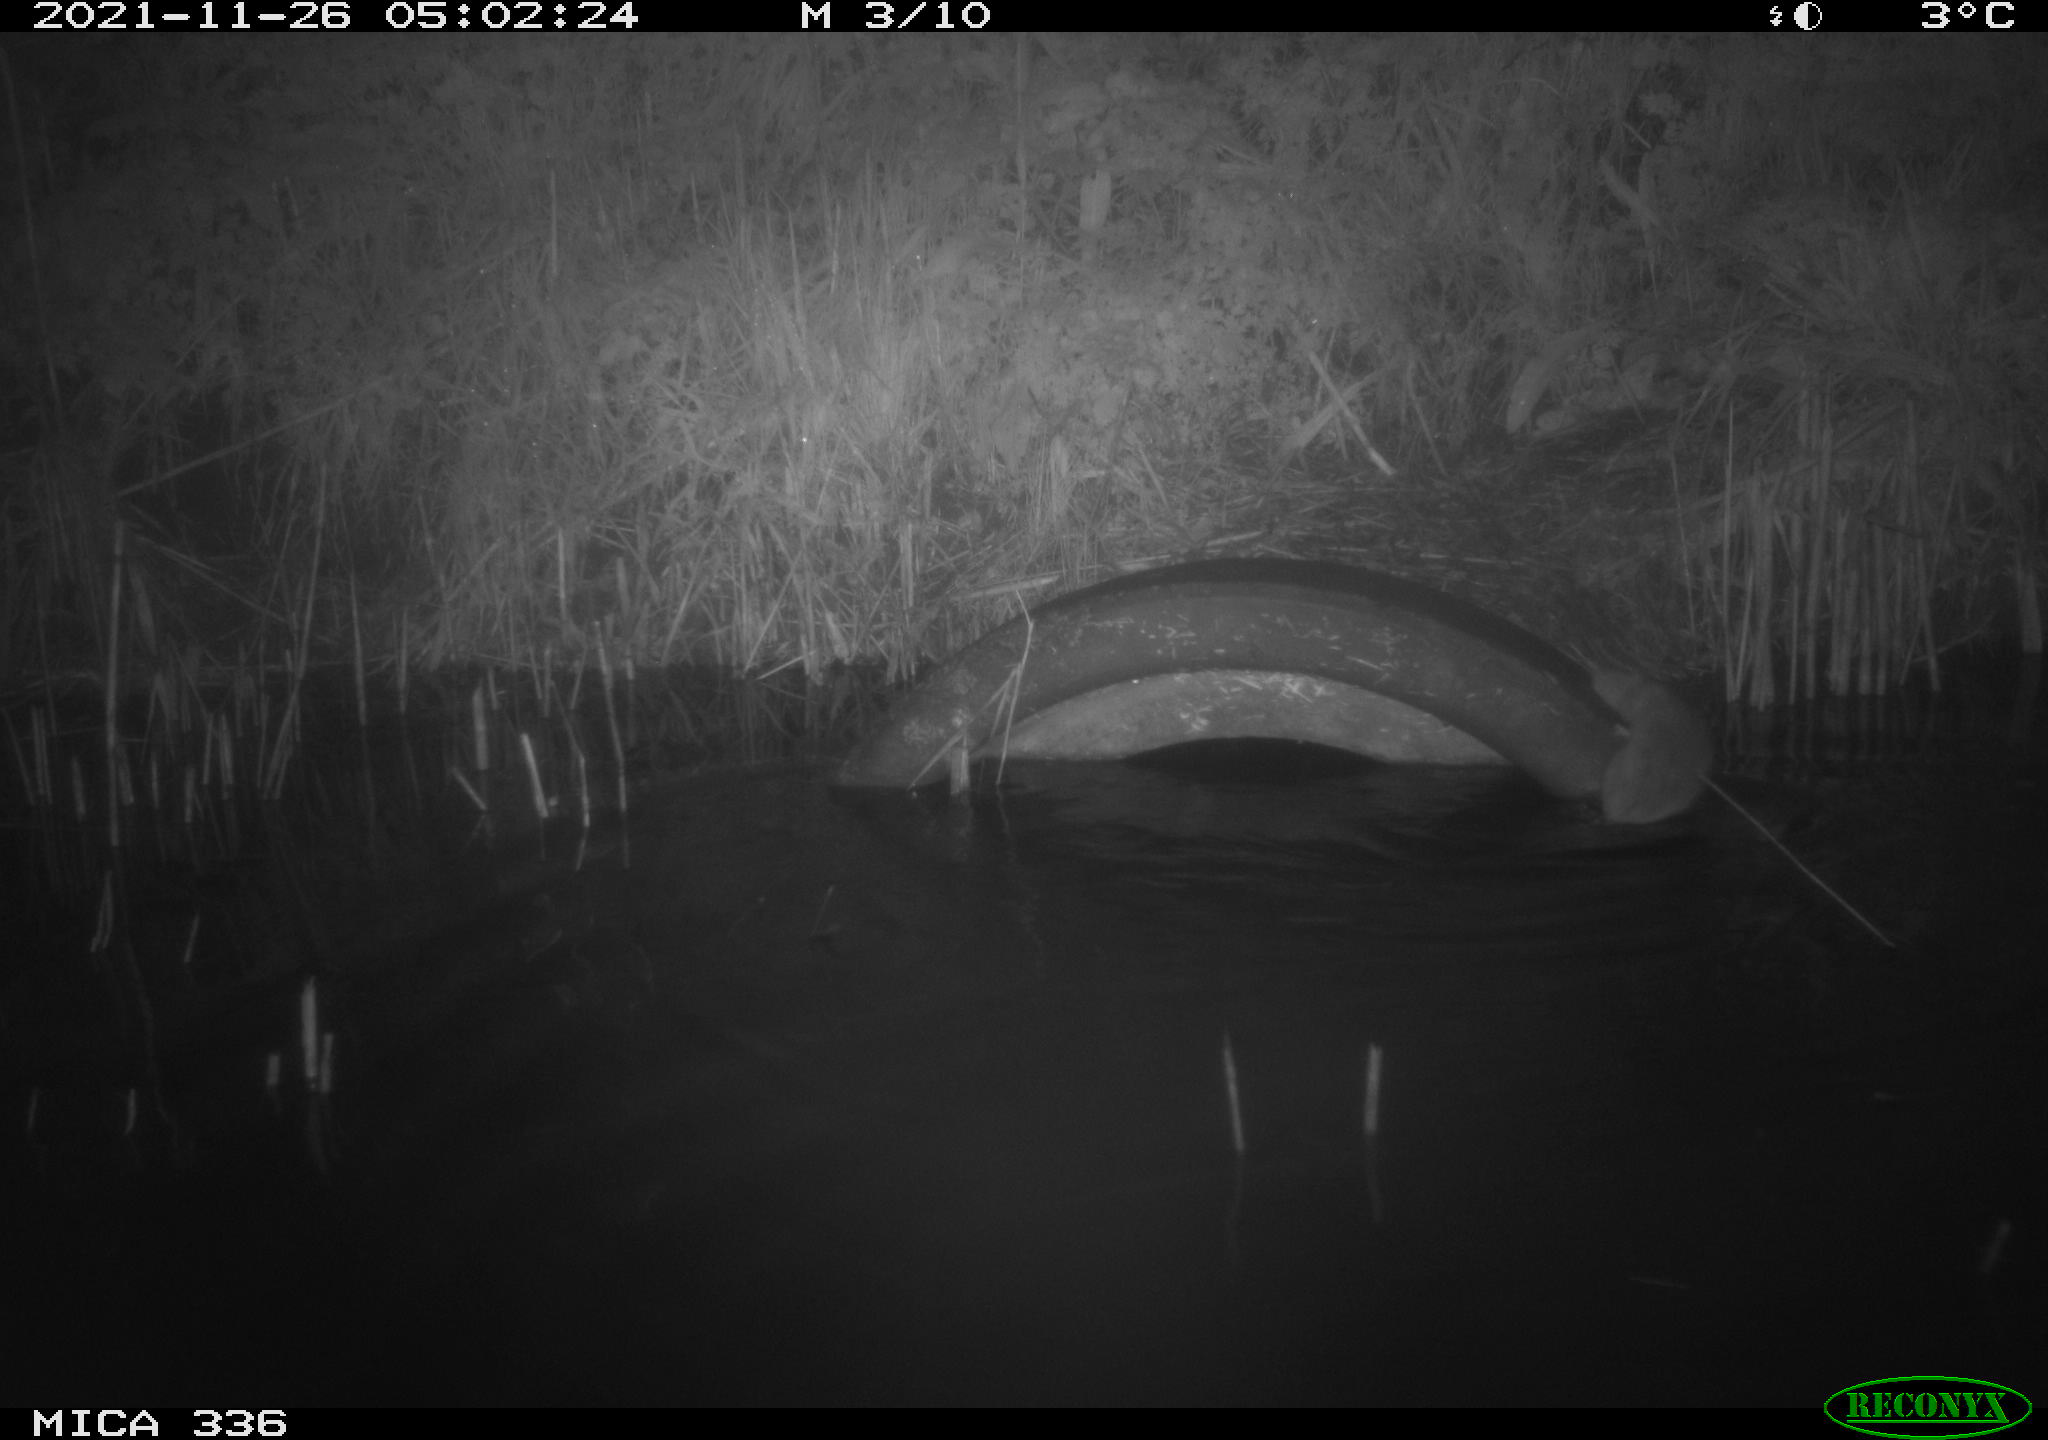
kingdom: Animalia
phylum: Chordata
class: Mammalia
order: Rodentia
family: Muridae
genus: Rattus
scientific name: Rattus norvegicus
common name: Brown rat
